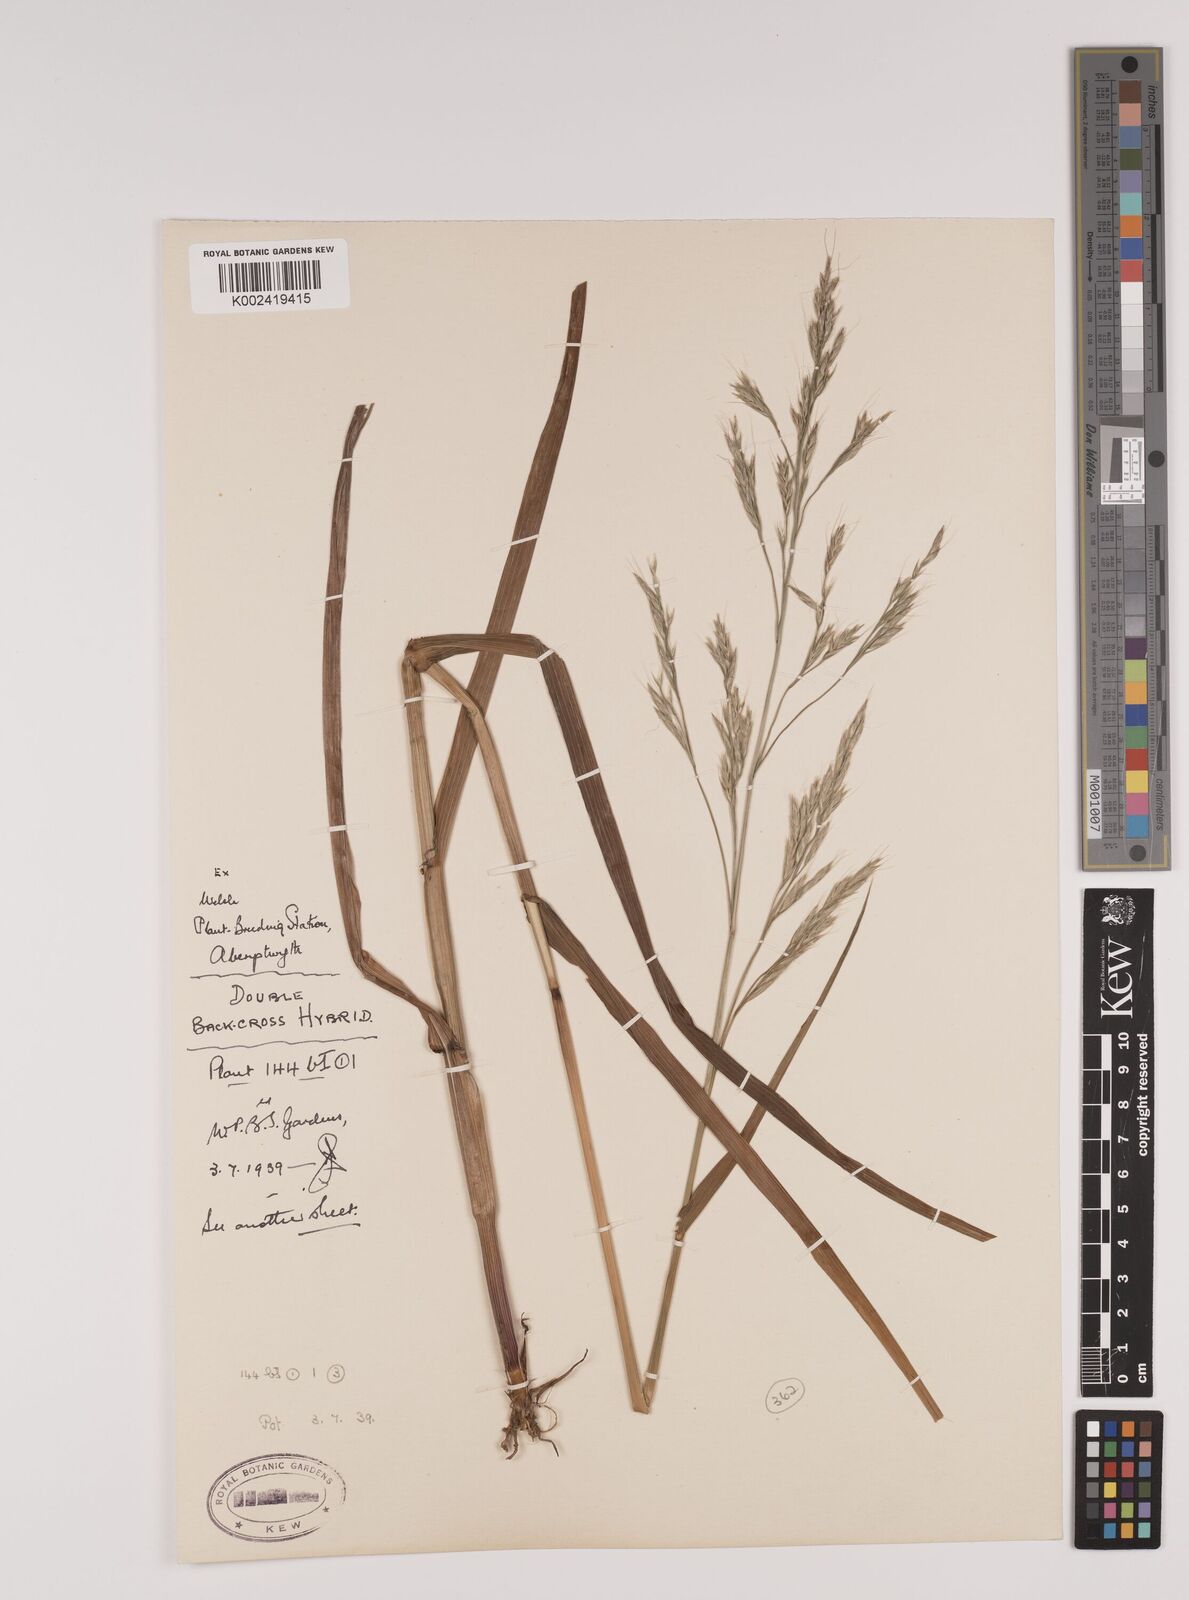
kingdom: Plantae
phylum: Tracheophyta
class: Liliopsida
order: Poales
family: Poaceae
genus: Lolium
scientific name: Lolium giganteum
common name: Giant fescue
